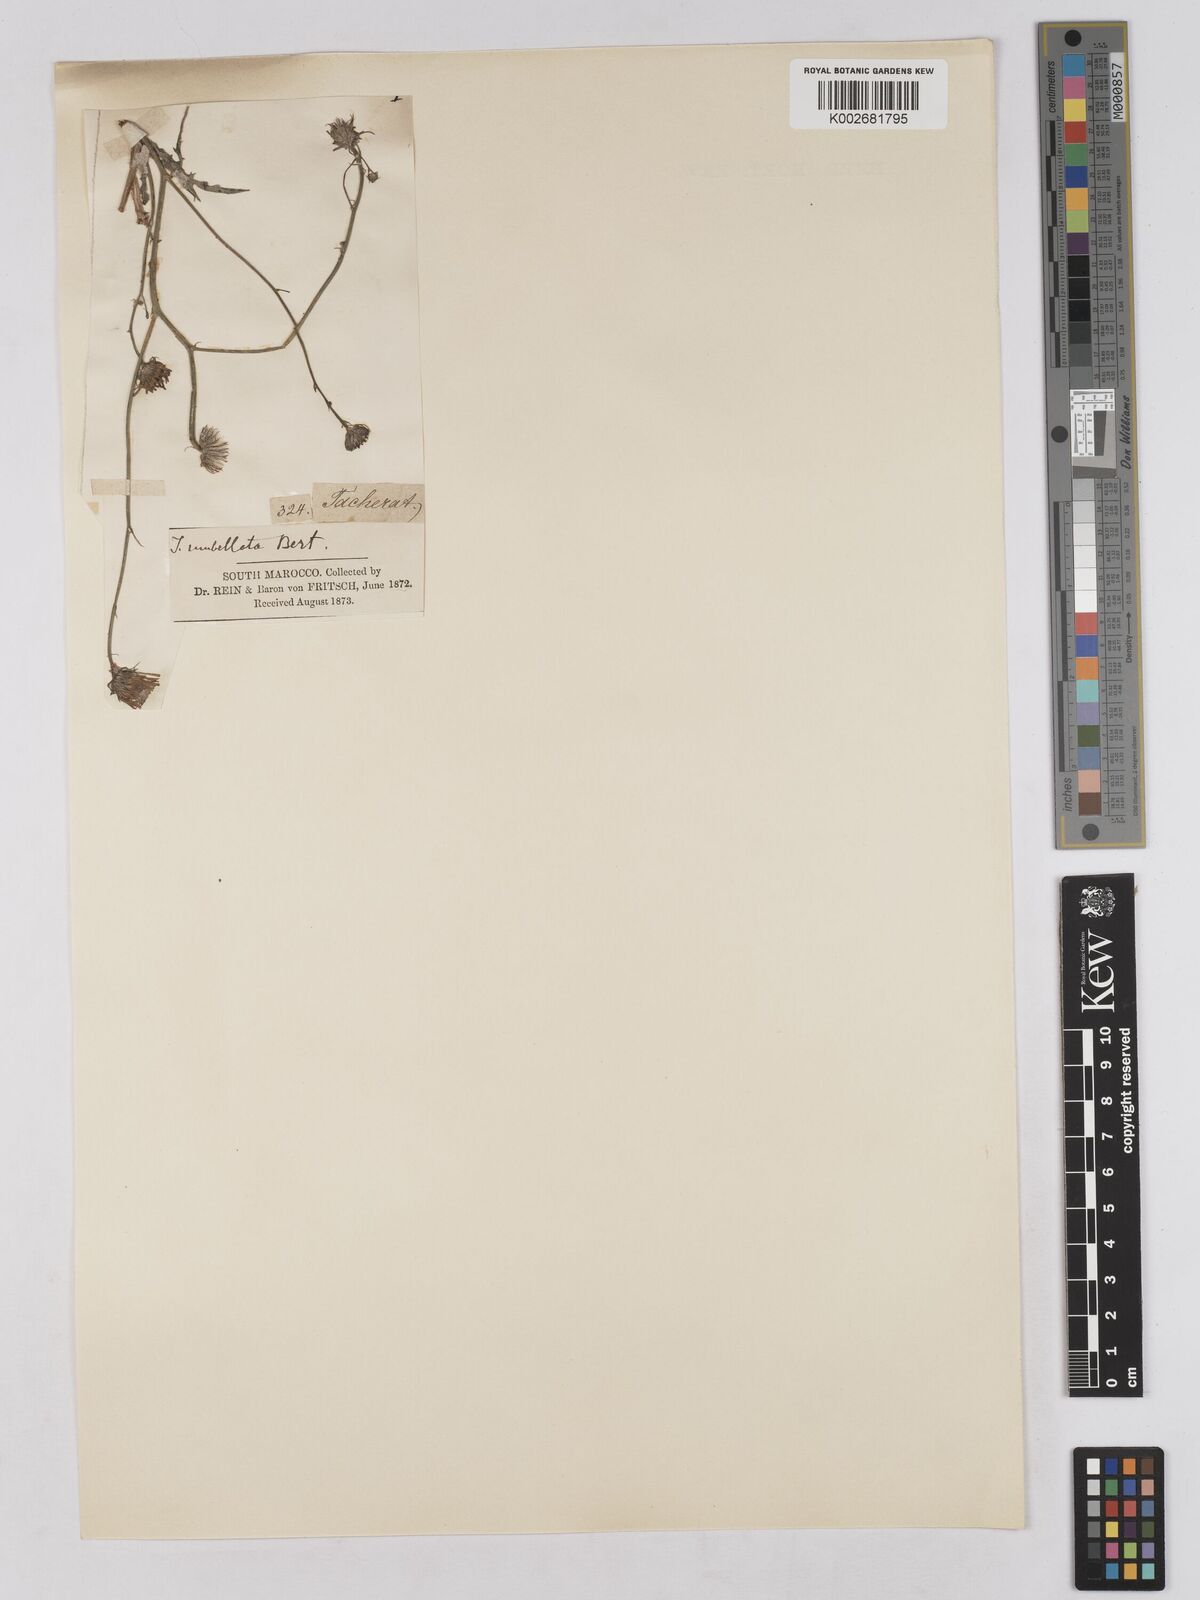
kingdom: Plantae
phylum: Tracheophyta
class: Magnoliopsida
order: Asterales
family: Asteraceae
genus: Tolpis
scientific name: Tolpis umbellata
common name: Yellow hawkweed
